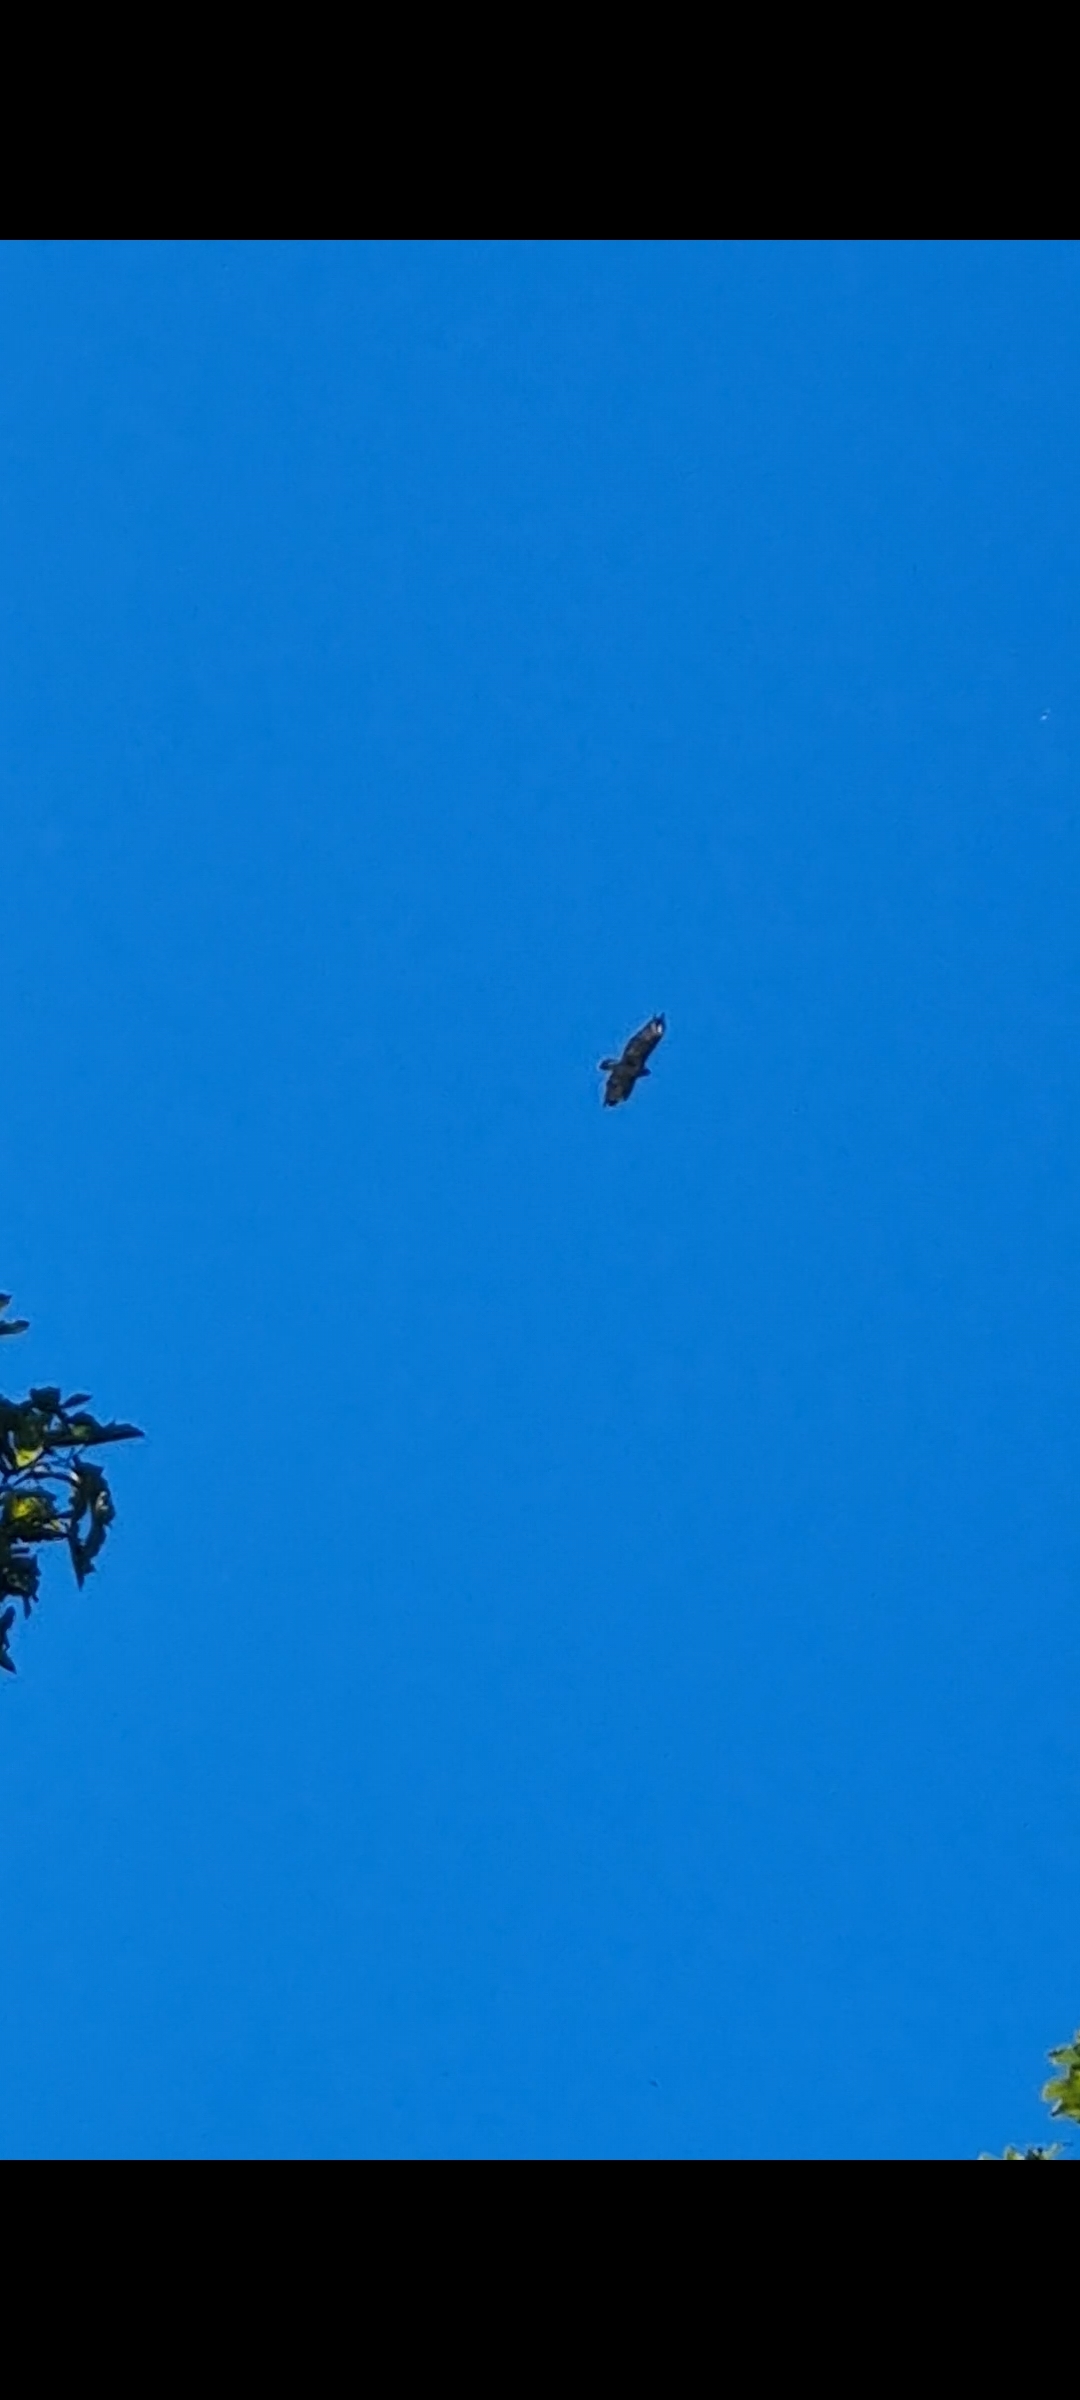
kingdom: Animalia
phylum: Chordata
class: Aves
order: Accipitriformes
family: Accipitridae
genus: Buteo
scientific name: Buteo buteo
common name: Musvåge
